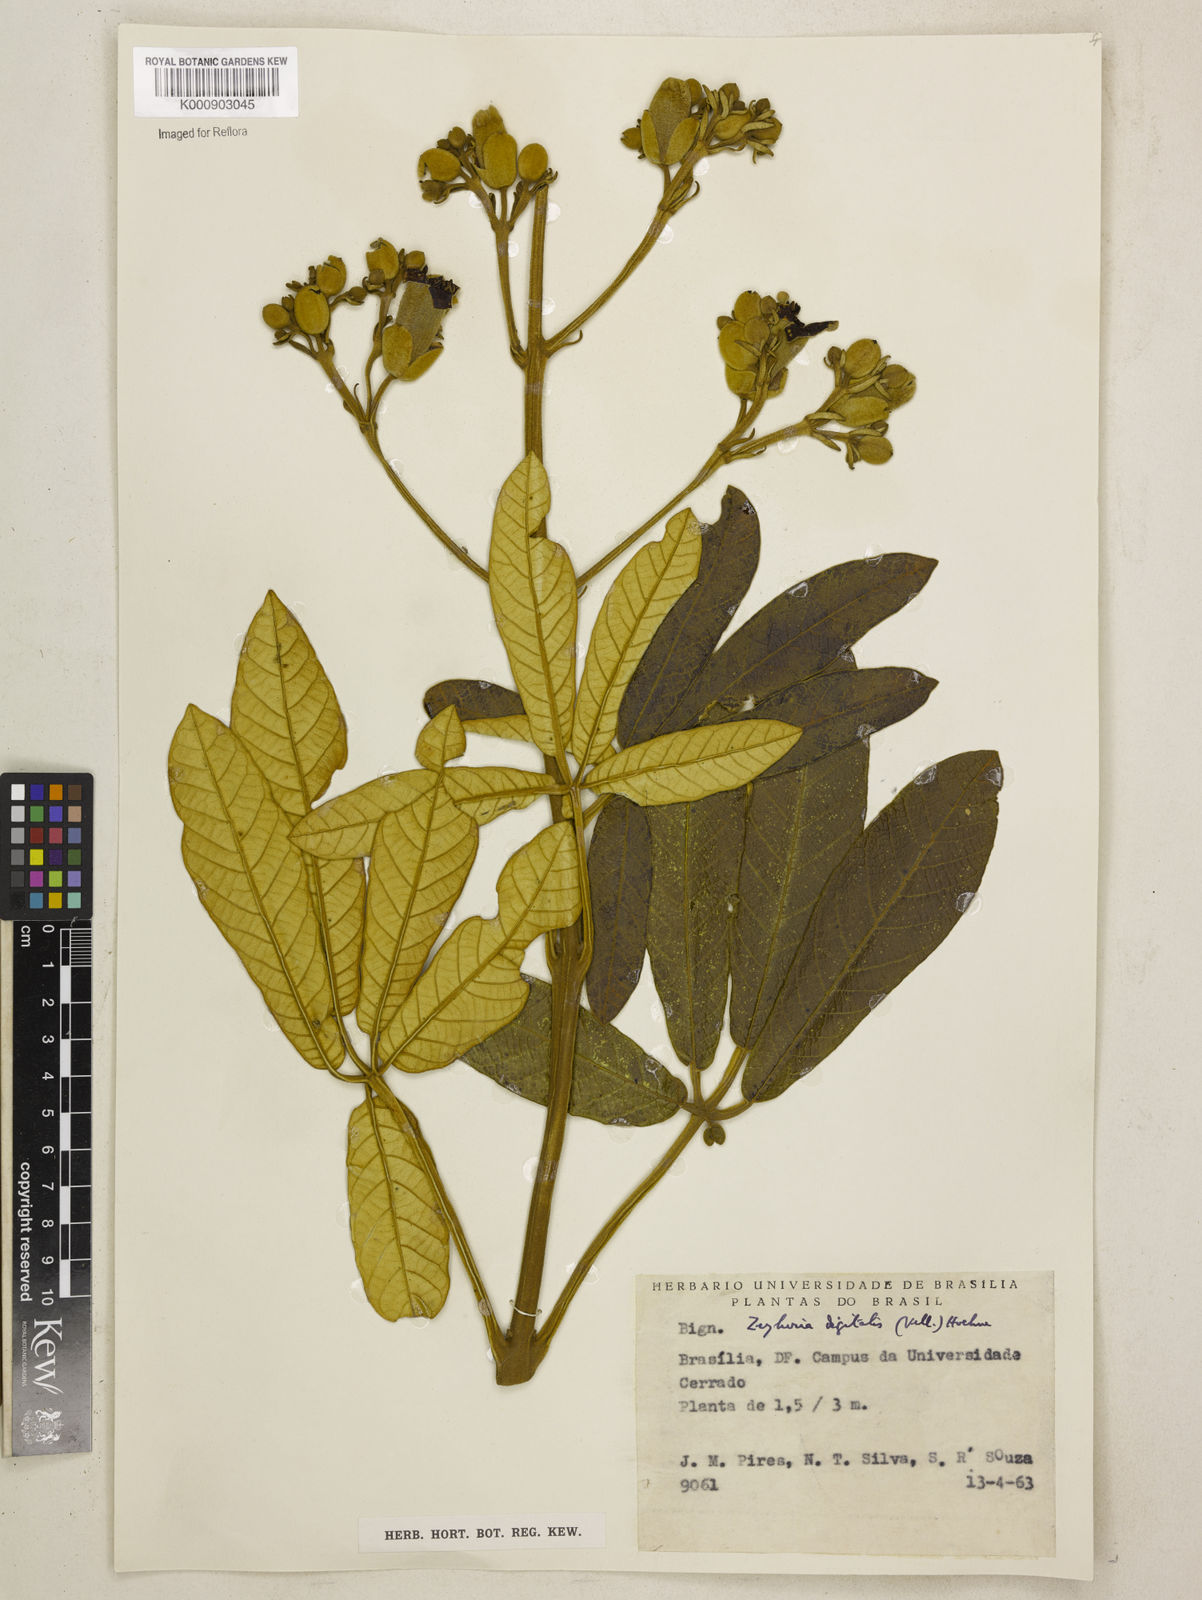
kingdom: Plantae
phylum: Tracheophyta
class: Magnoliopsida
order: Lamiales
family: Bignoniaceae
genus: Zeyheria
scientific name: Zeyheria
